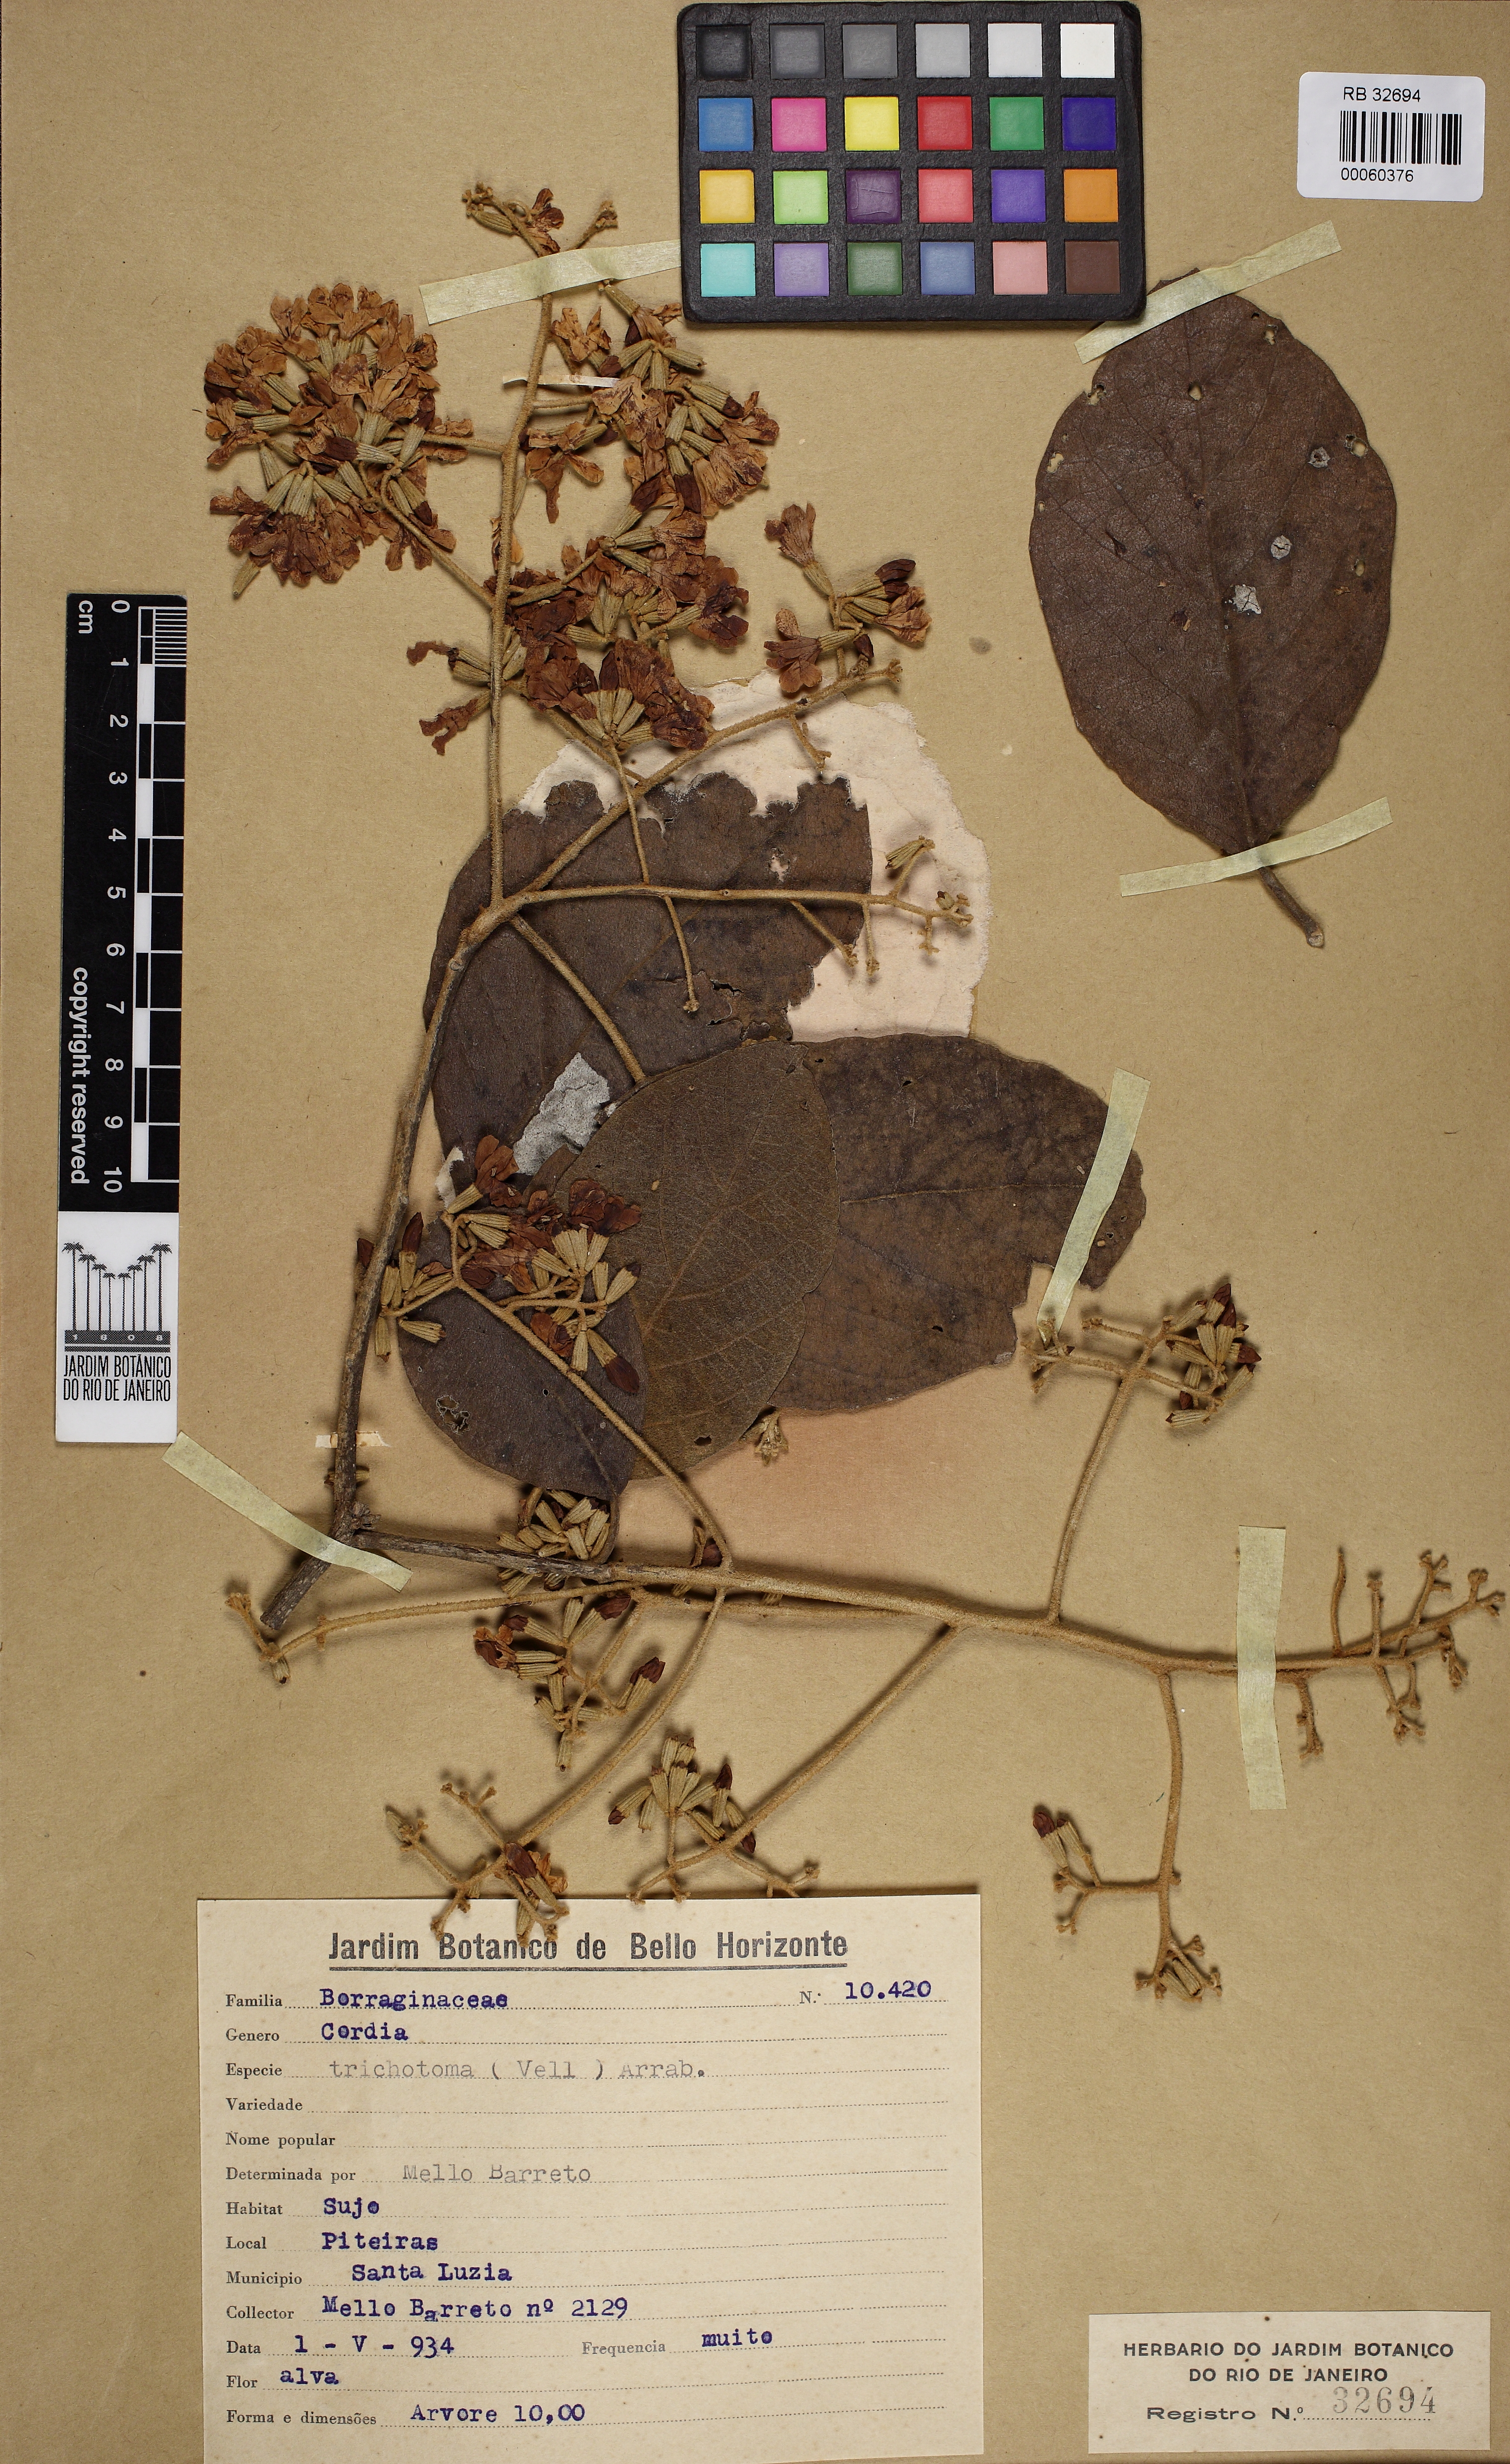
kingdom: Plantae
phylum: Tracheophyta
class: Magnoliopsida
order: Boraginales
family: Cordiaceae
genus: Cordia
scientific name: Cordia trichotoma
